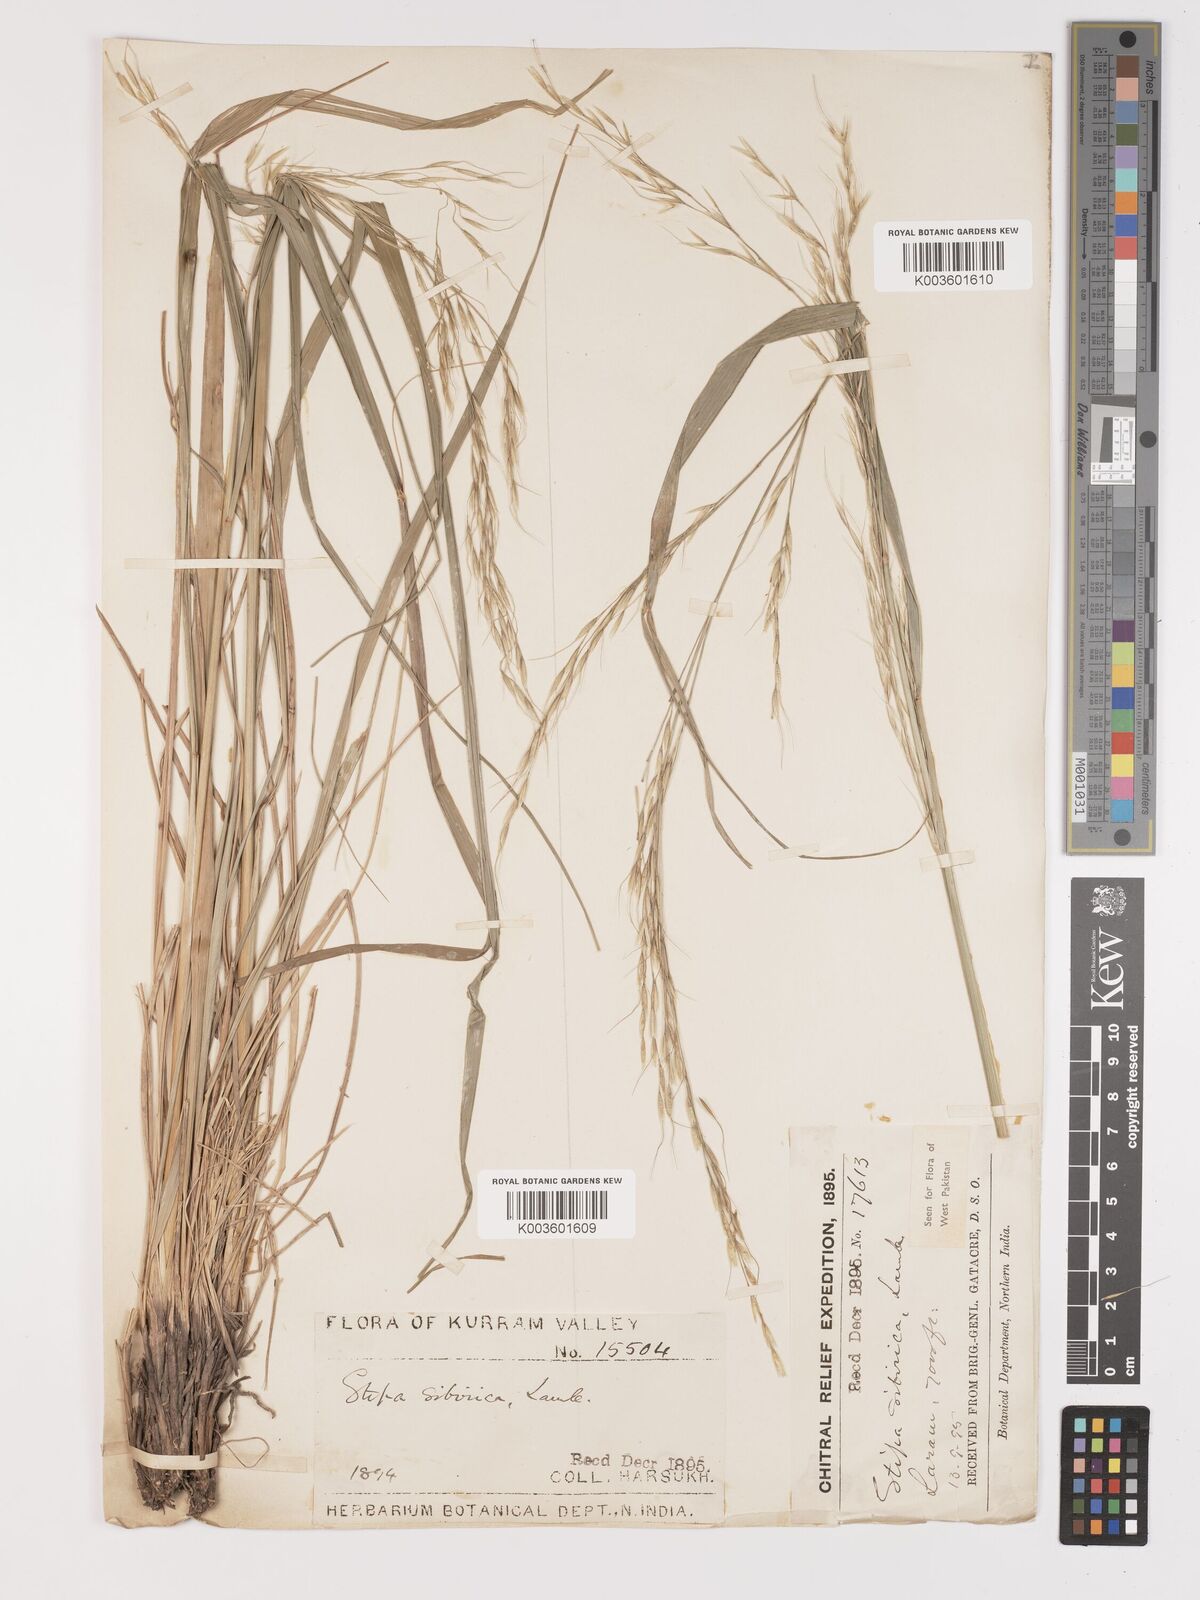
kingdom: Plantae
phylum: Tracheophyta
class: Liliopsida
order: Poales
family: Poaceae
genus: Achnatherum
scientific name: Achnatherum brandisii
